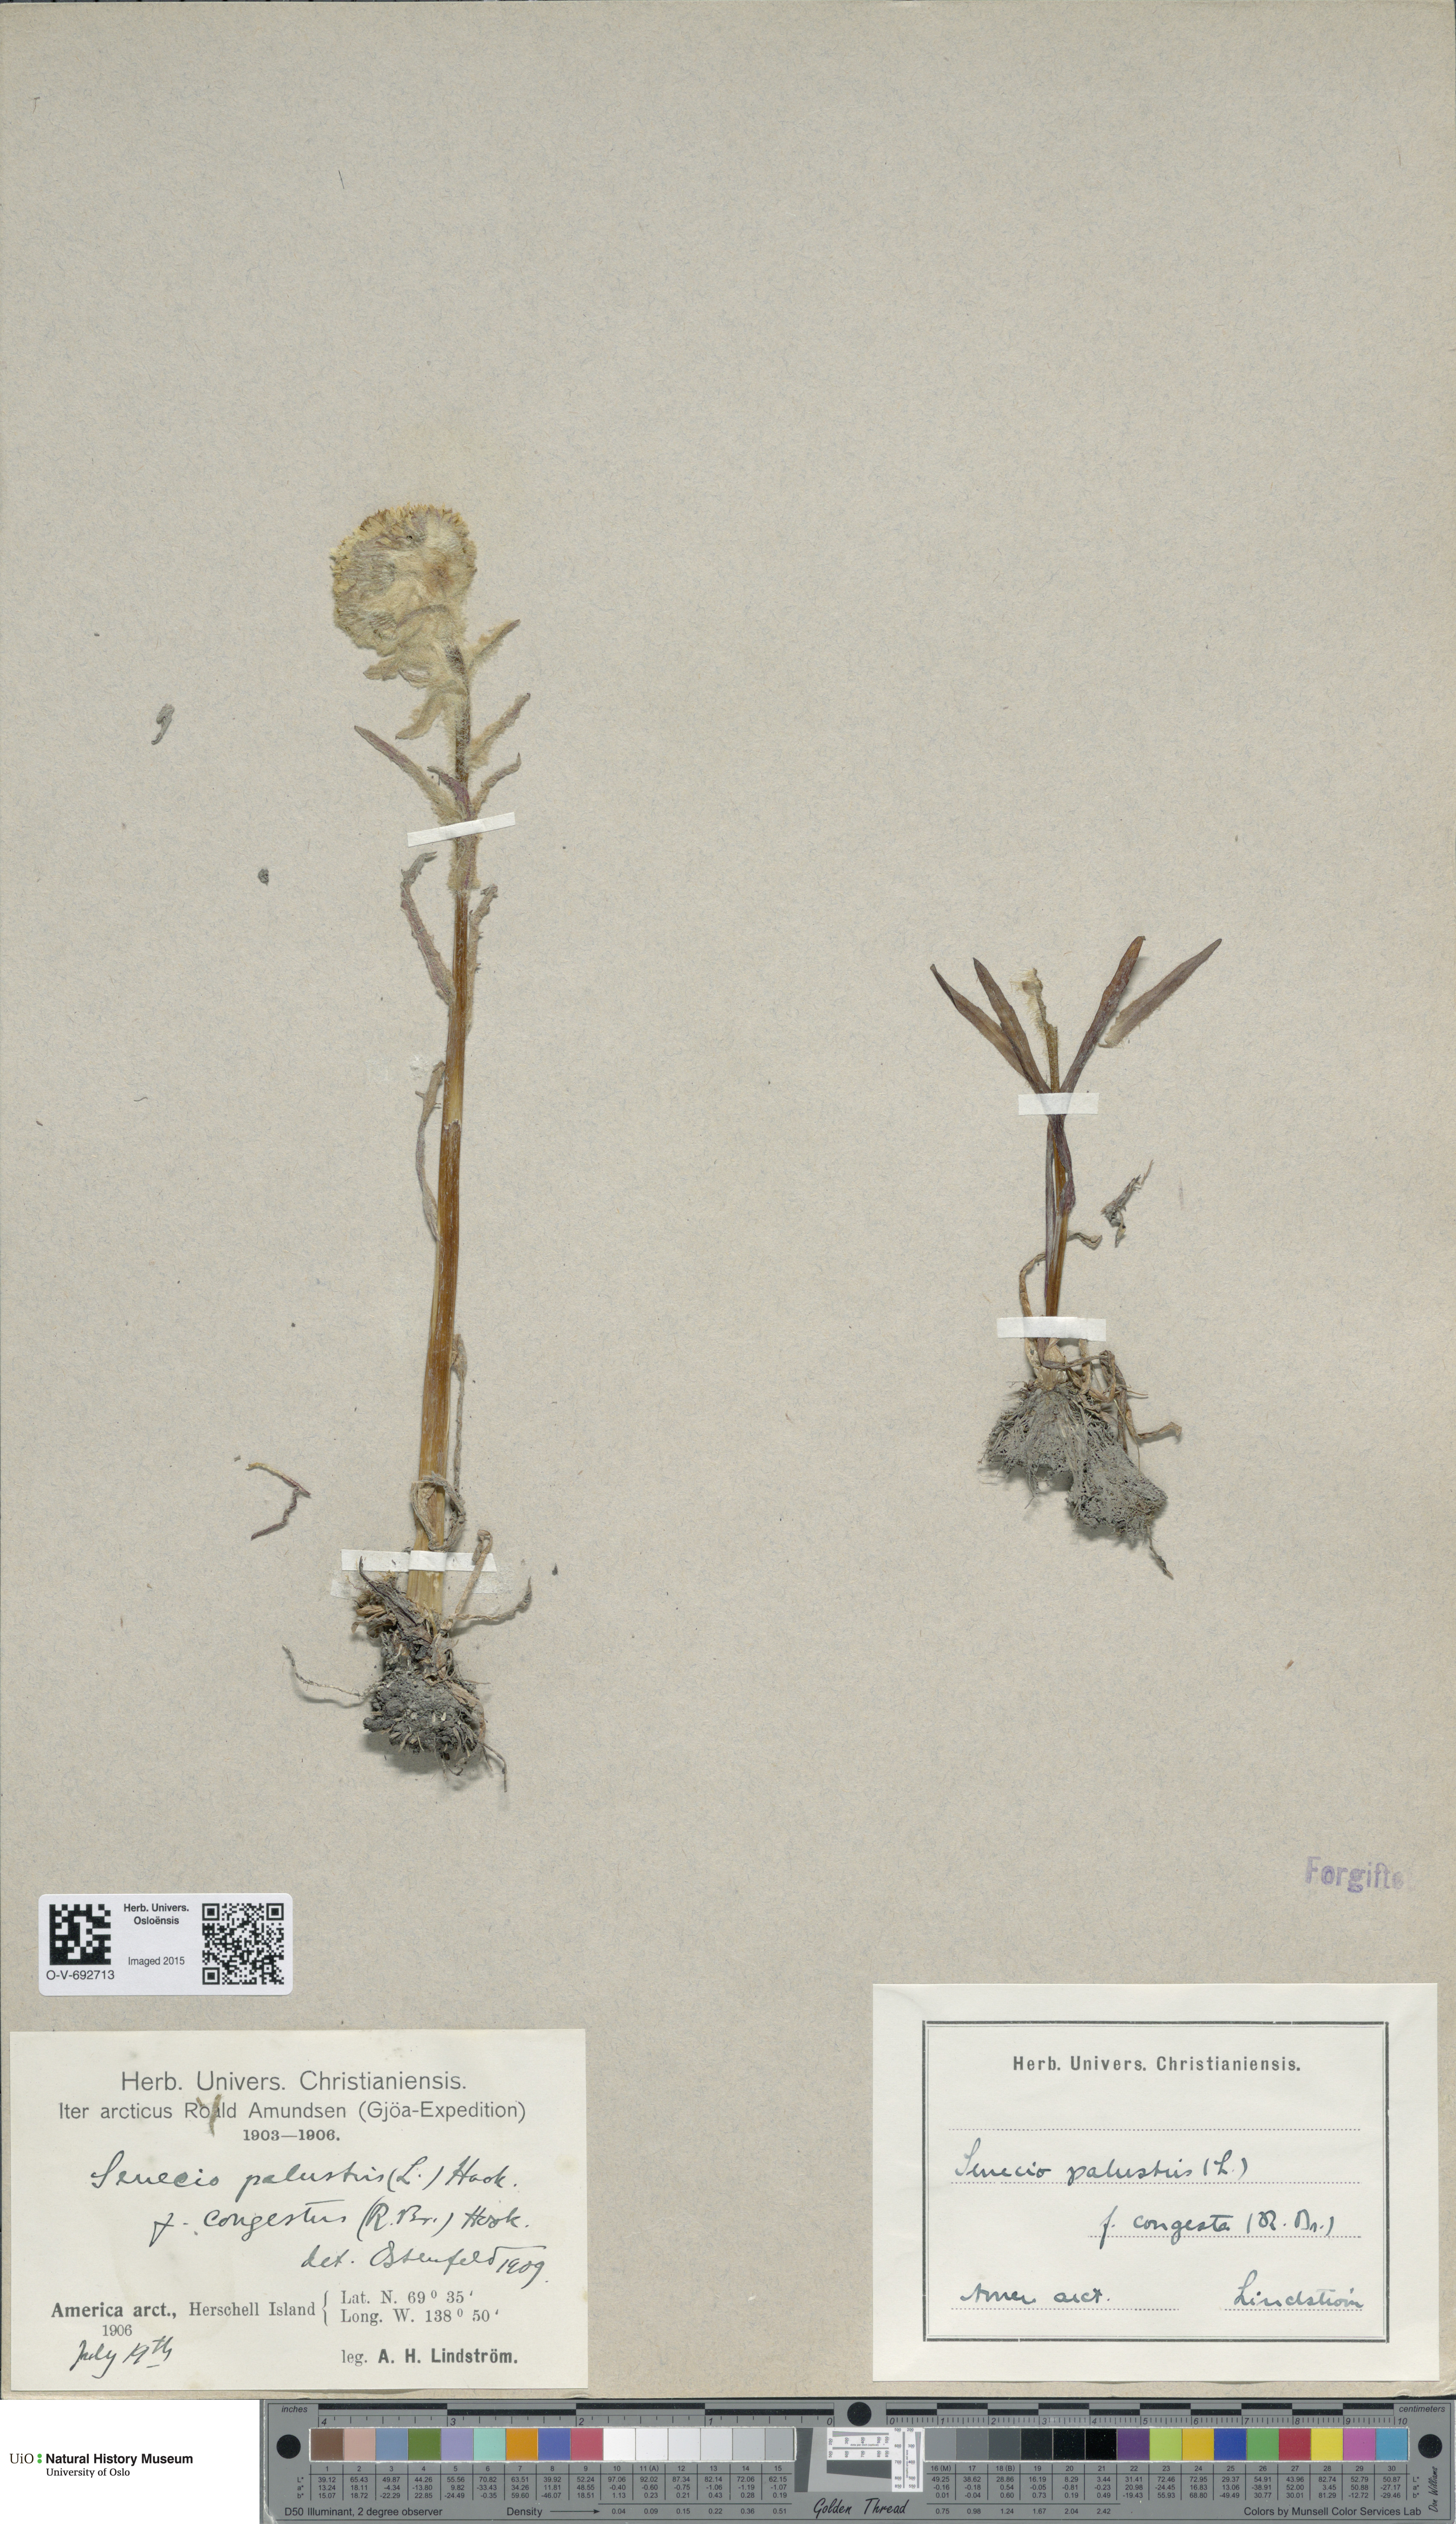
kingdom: Plantae
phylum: Tracheophyta
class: Magnoliopsida
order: Asterales
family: Asteraceae
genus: Tephroseris
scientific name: Tephroseris palustris
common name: Marsh fleawort
